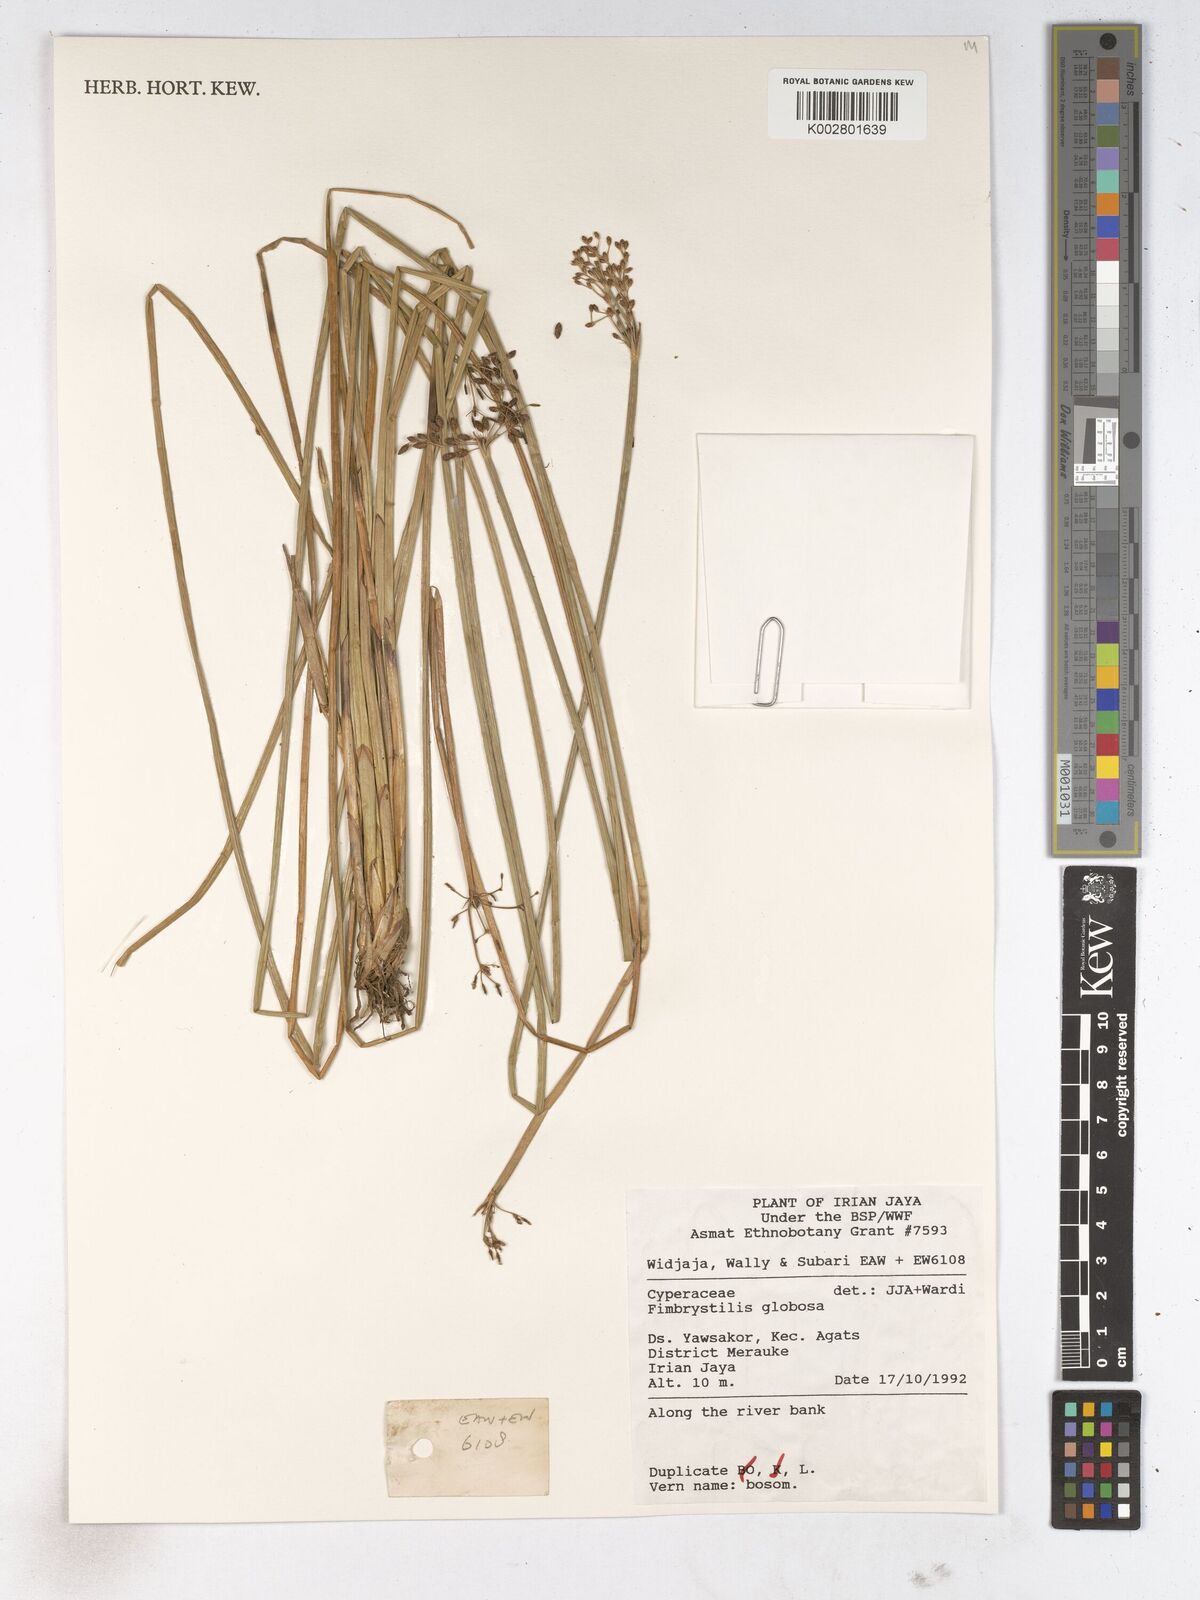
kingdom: Plantae
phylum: Tracheophyta
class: Liliopsida
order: Poales
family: Cyperaceae
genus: Fimbristylis
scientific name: Fimbristylis umbellaris
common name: Globular fimbristylis
